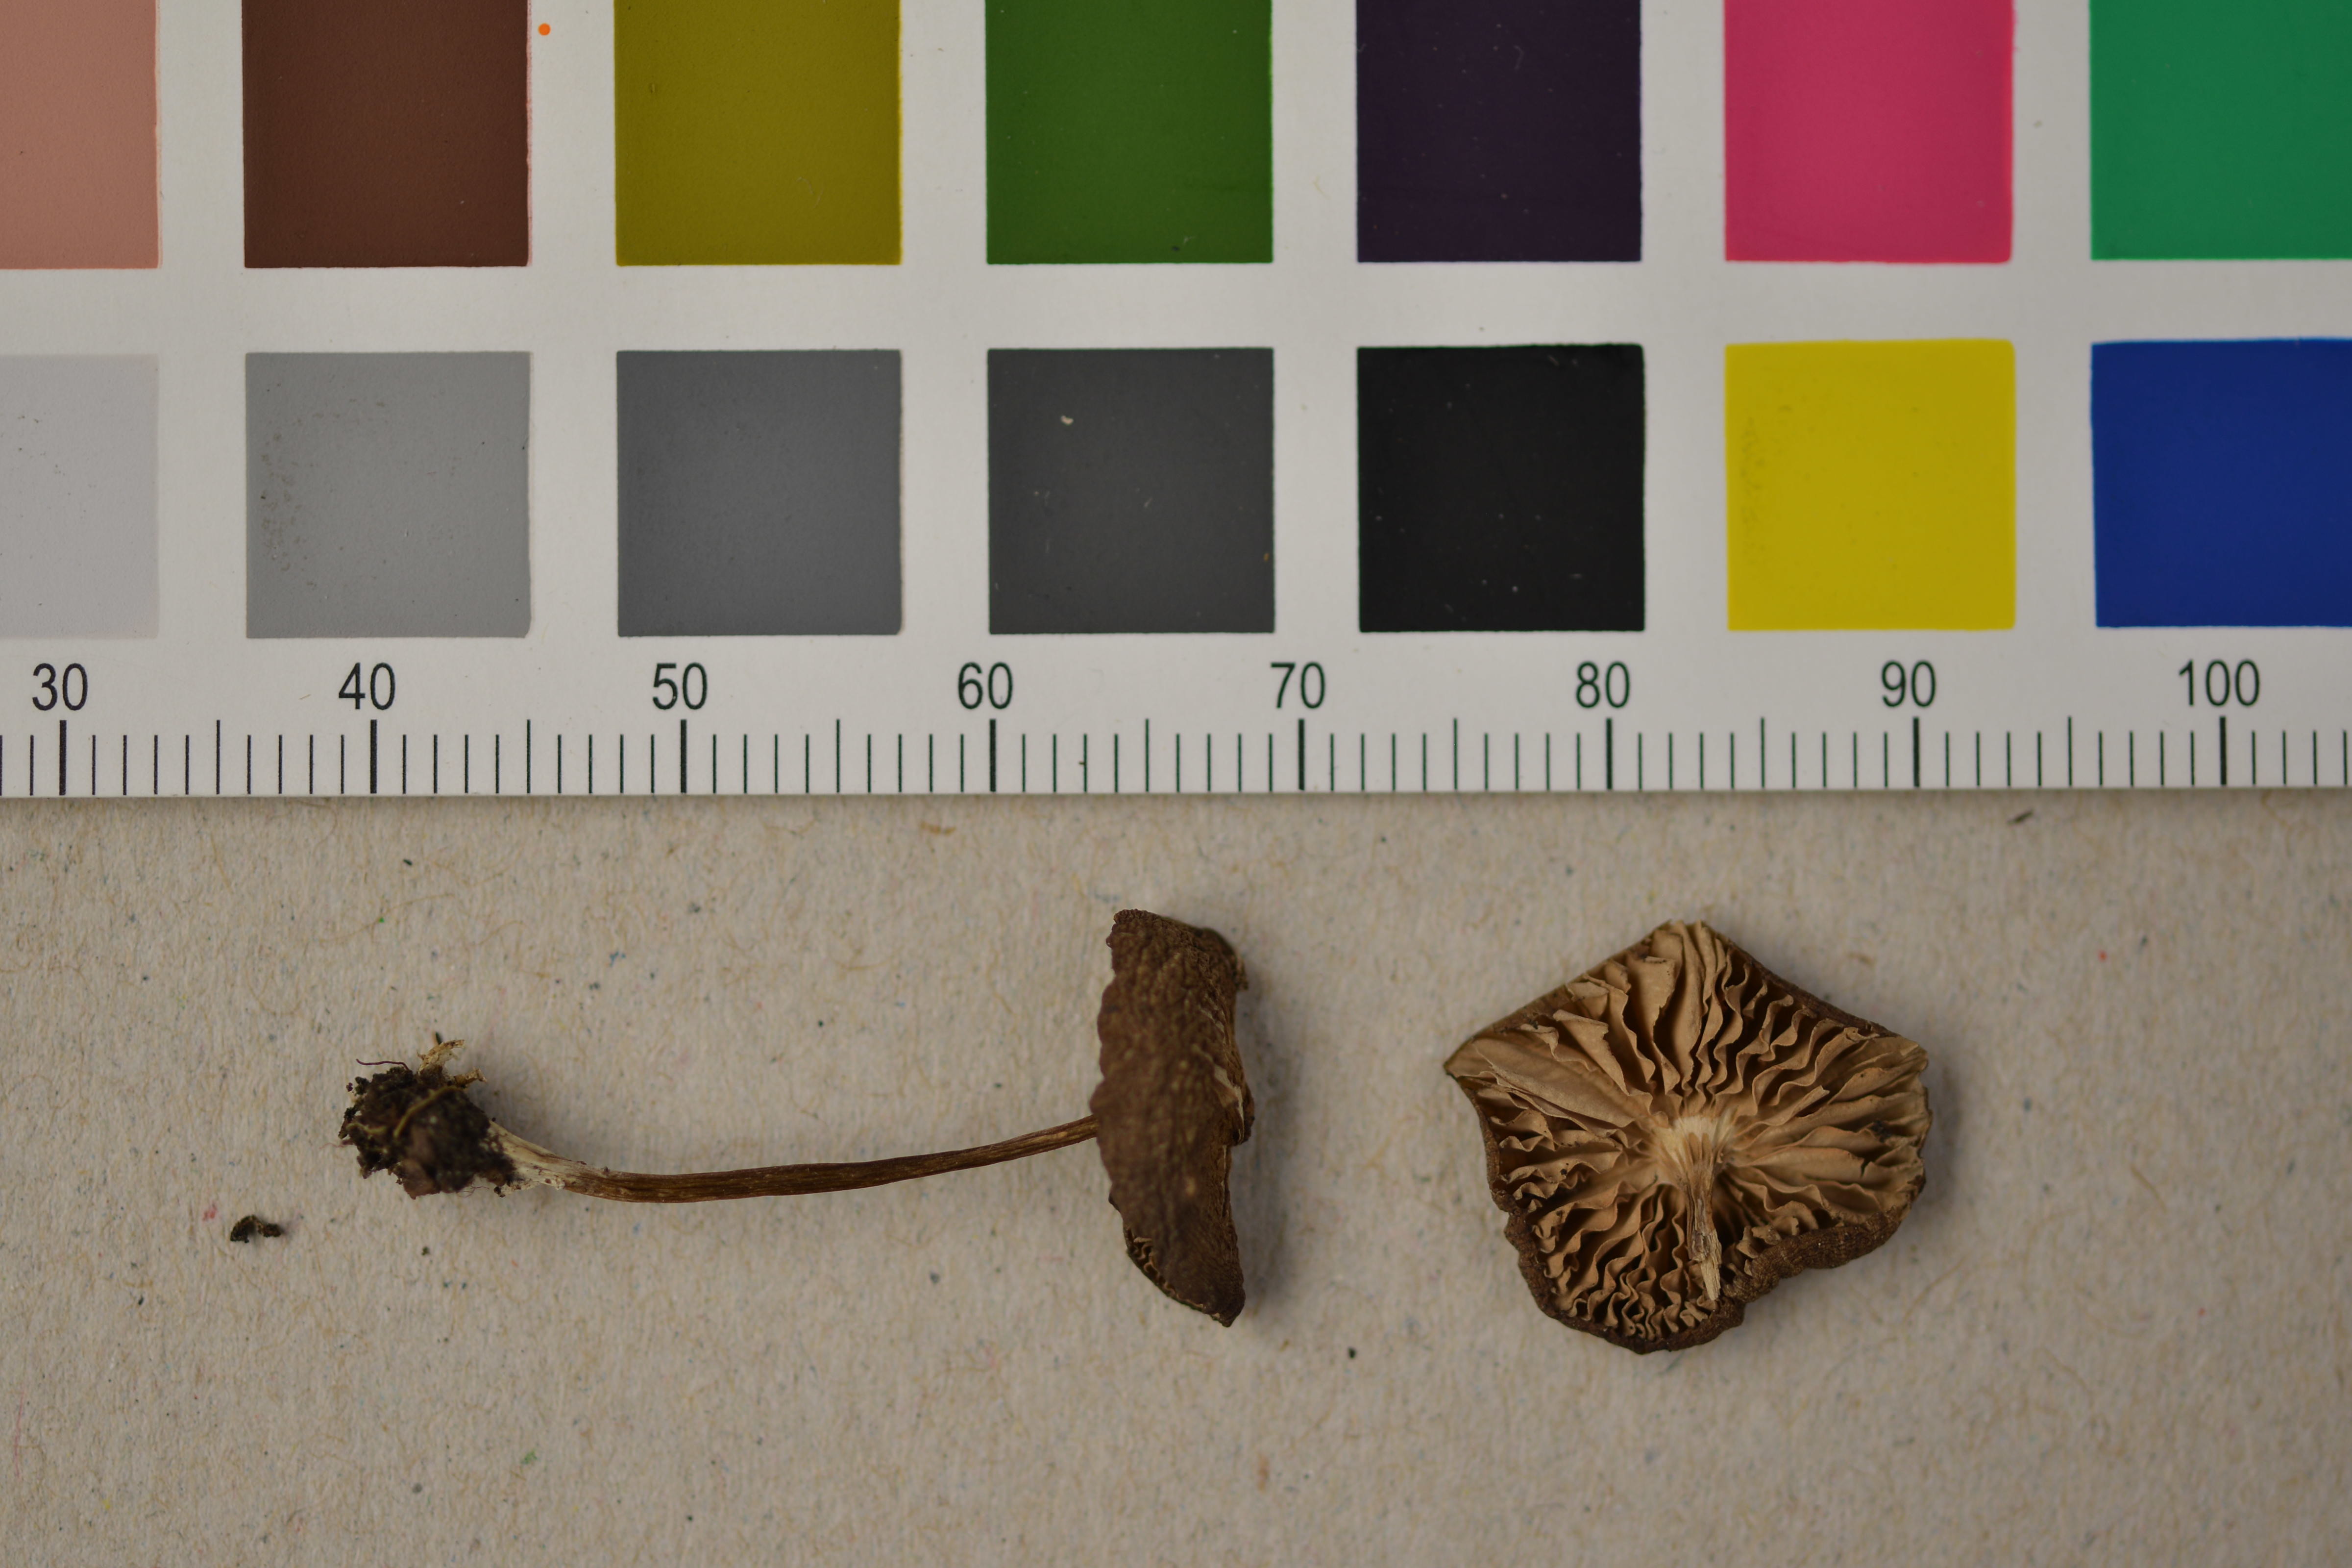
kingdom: Fungi
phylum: Basidiomycota
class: Agaricomycetes
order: Agaricales
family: Entolomataceae
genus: Entoloma
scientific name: Entoloma
